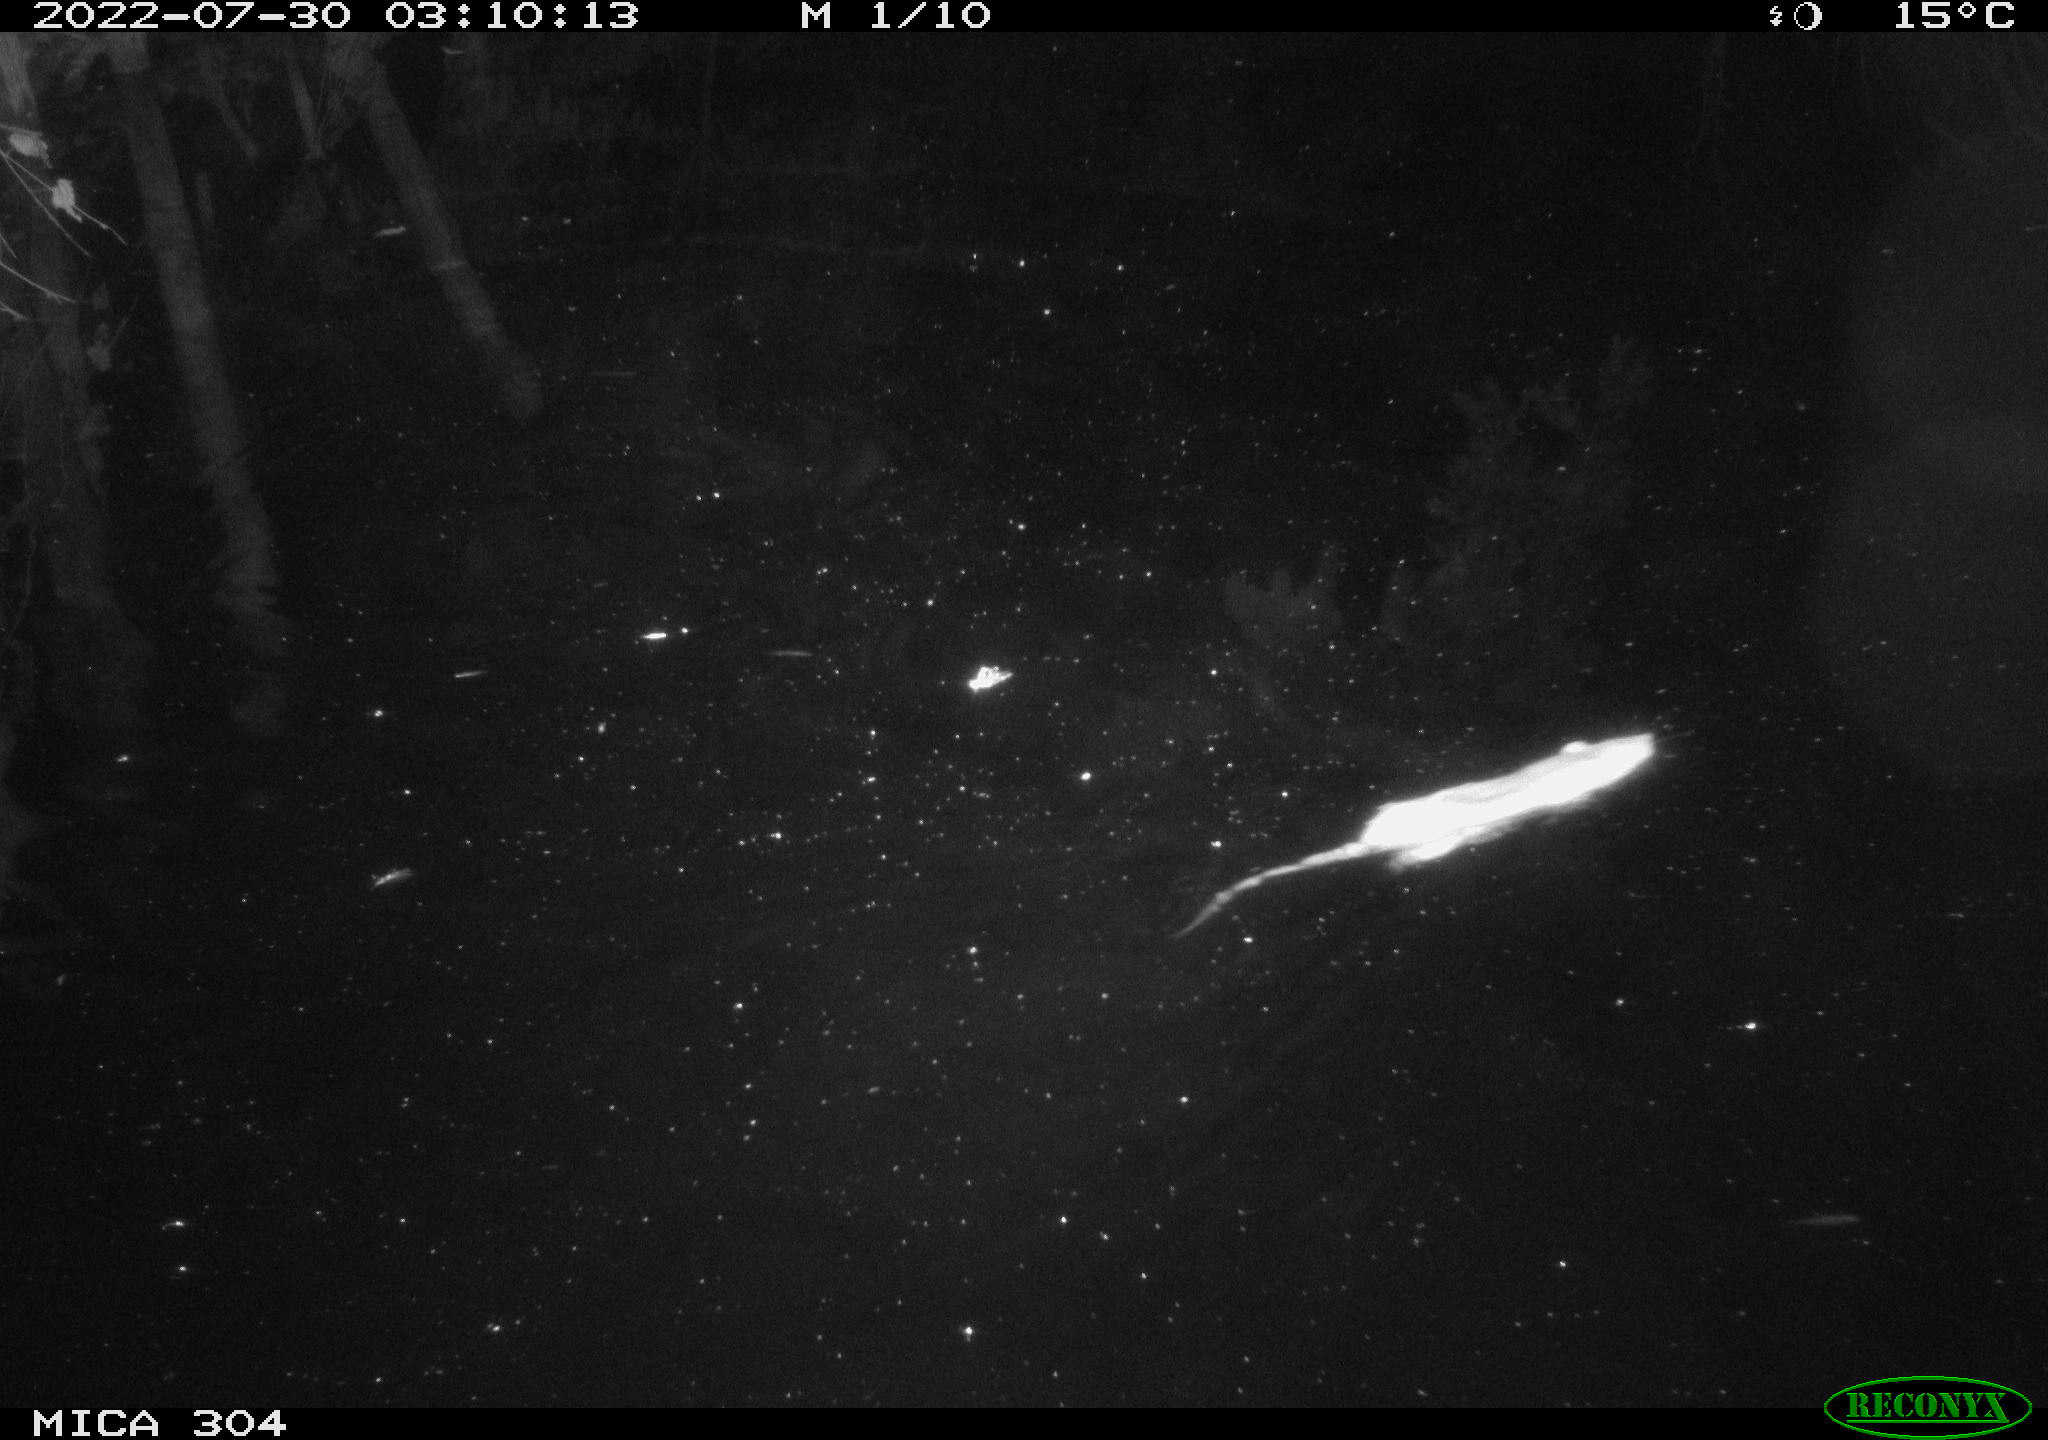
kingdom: Animalia
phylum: Chordata
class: Mammalia
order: Rodentia
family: Muridae
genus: Rattus
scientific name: Rattus norvegicus
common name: Brown rat
